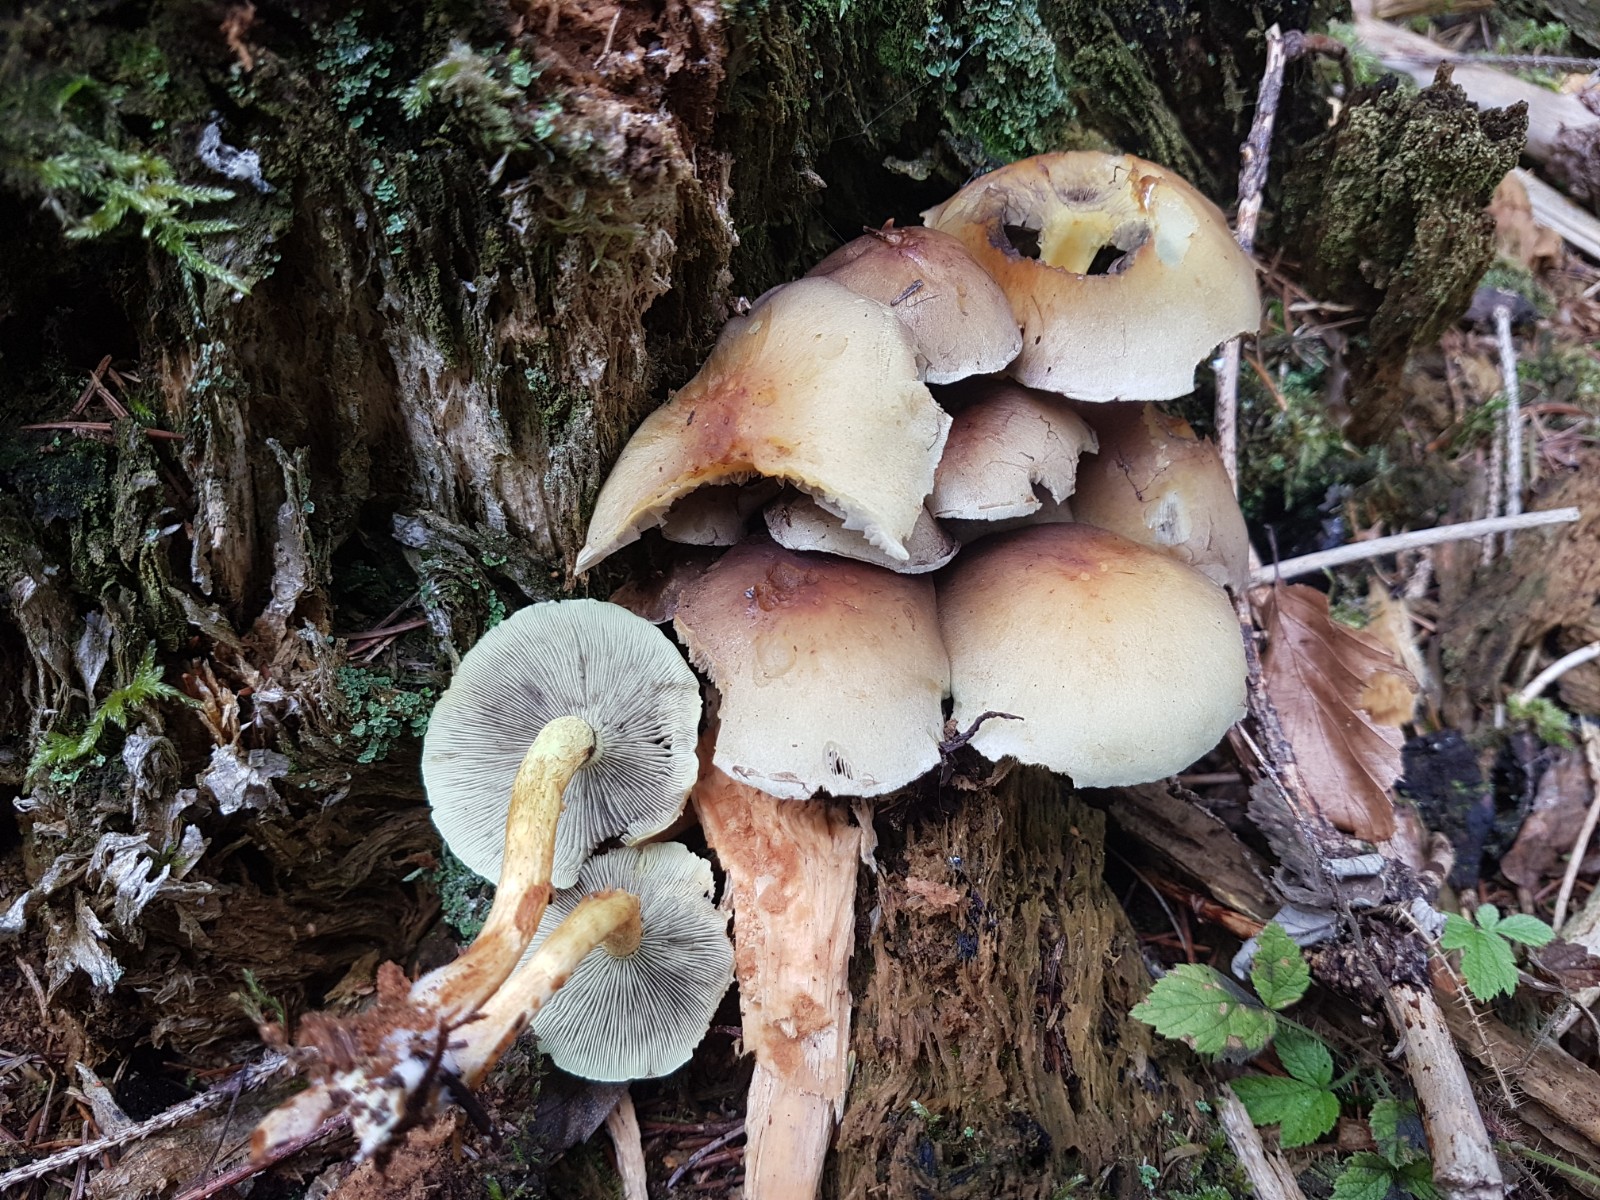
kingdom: Fungi
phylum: Basidiomycota
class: Agaricomycetes
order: Agaricales
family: Strophariaceae
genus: Hypholoma
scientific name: Hypholoma fasciculare
